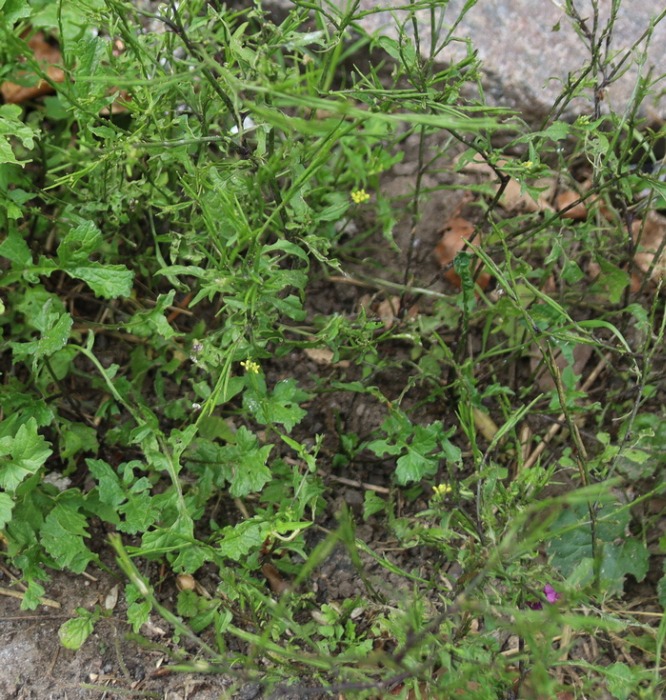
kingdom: Plantae
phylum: Tracheophyta
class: Magnoliopsida
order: Brassicales
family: Brassicaceae
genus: Sisymbrium
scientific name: Sisymbrium officinale
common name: Rank vejsennep
